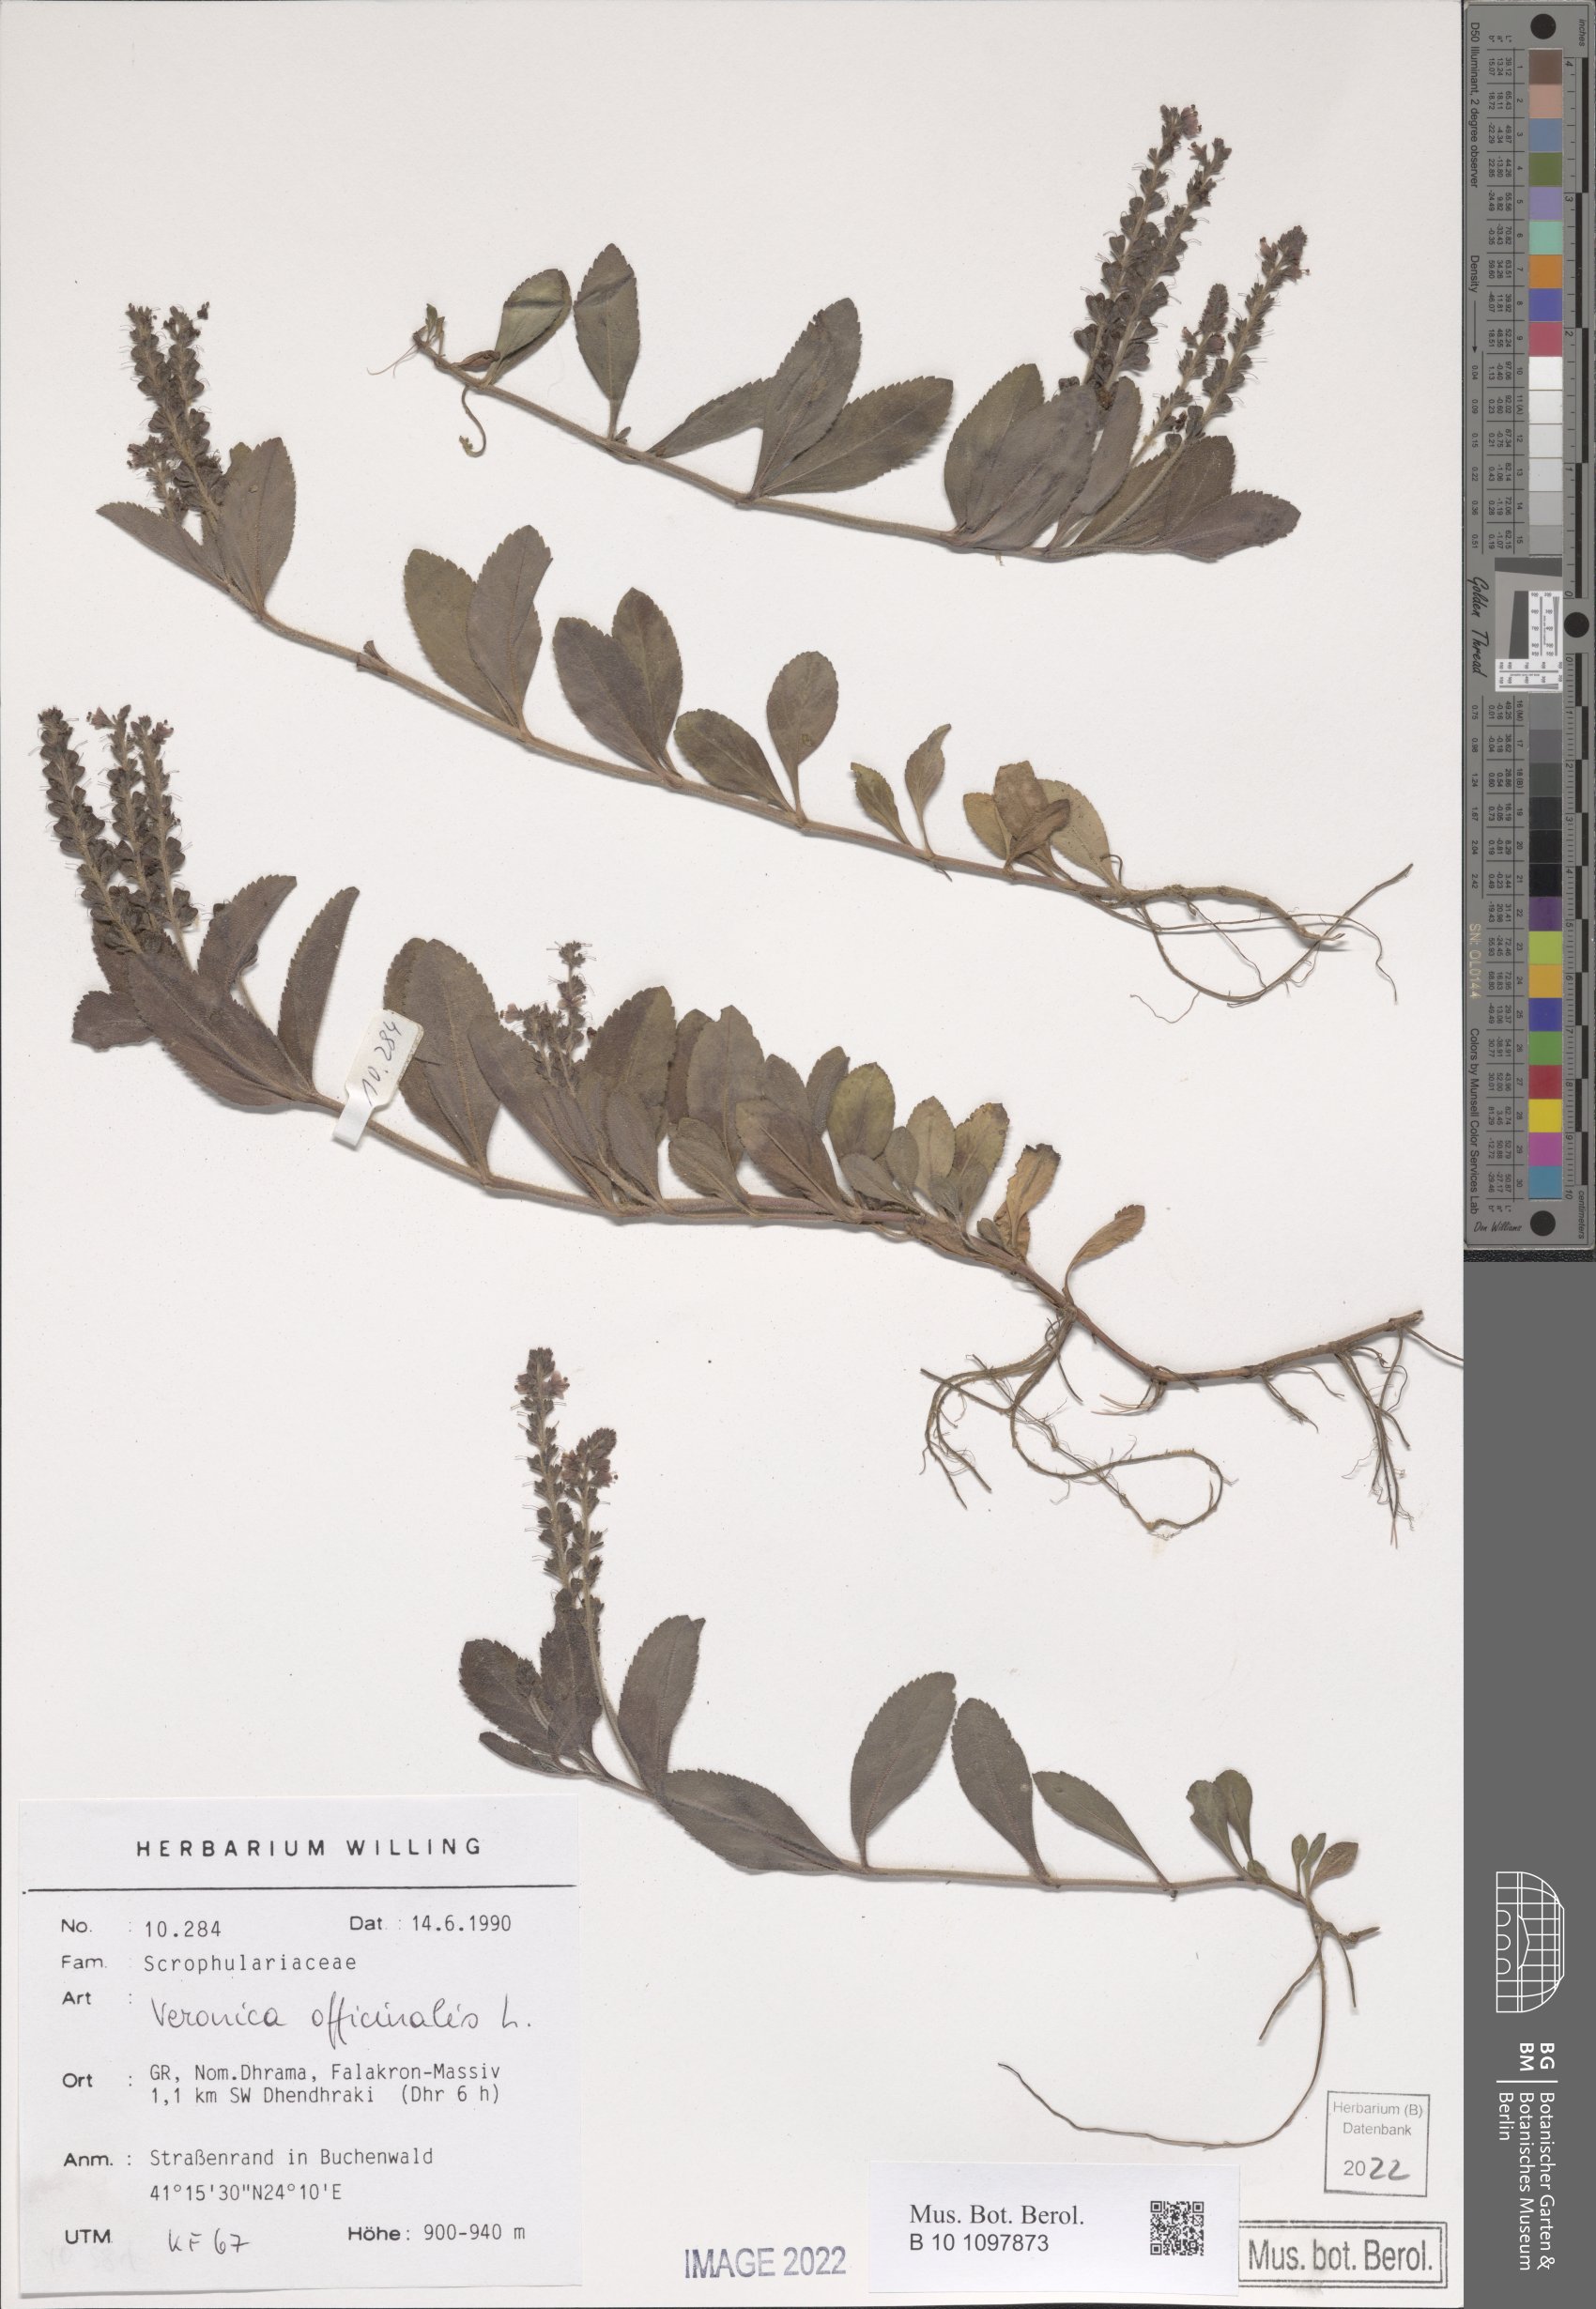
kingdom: Plantae
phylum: Tracheophyta
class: Magnoliopsida
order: Lamiales
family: Plantaginaceae
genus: Veronica
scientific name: Veronica officinalis
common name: Common speedwell
